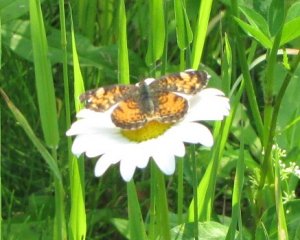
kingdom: Animalia
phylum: Arthropoda
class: Insecta
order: Lepidoptera
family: Nymphalidae
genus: Phyciodes
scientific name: Phyciodes tharos
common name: Northern Crescent
